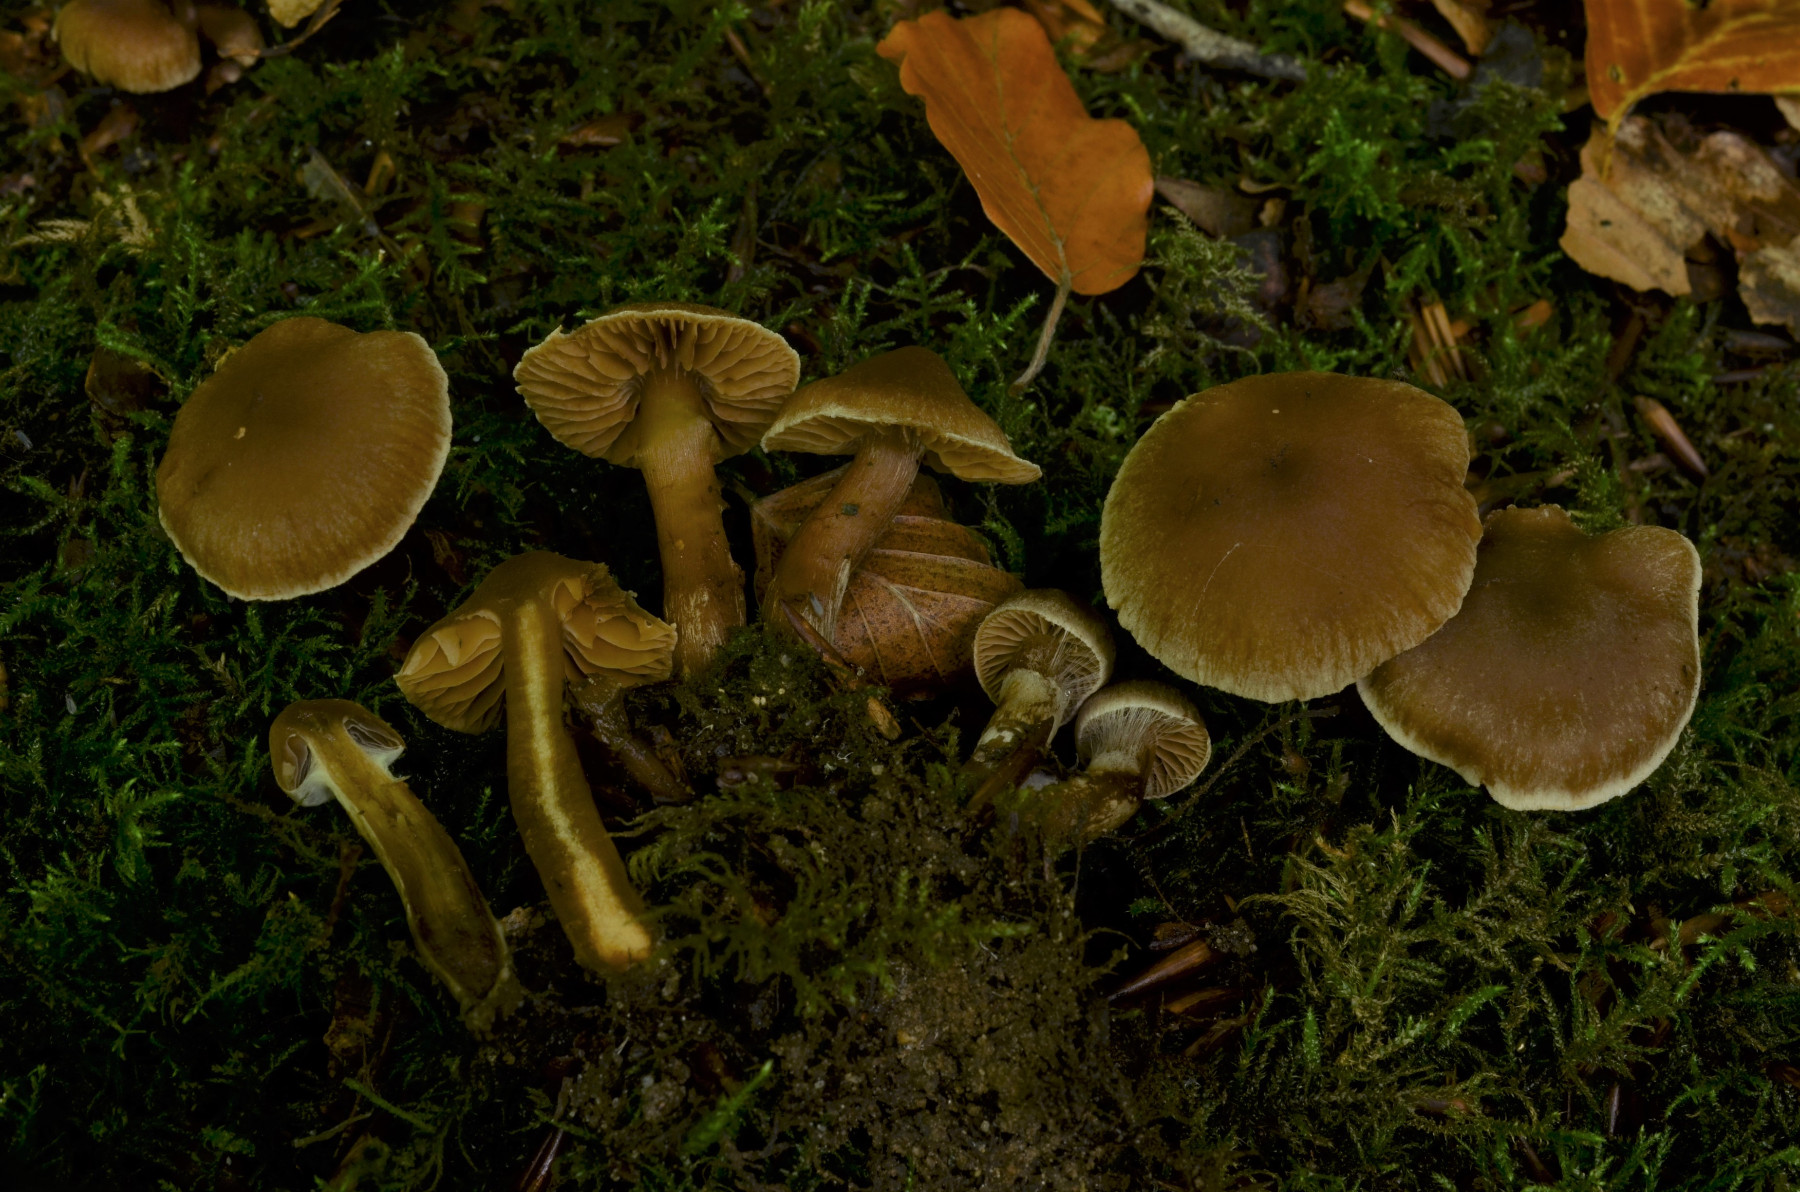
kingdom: Fungi
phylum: Basidiomycota
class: Agaricomycetes
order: Agaricales
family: Cortinariaceae
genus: Cortinarius
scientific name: Cortinarius elaphinicolor
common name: glat slørhat
